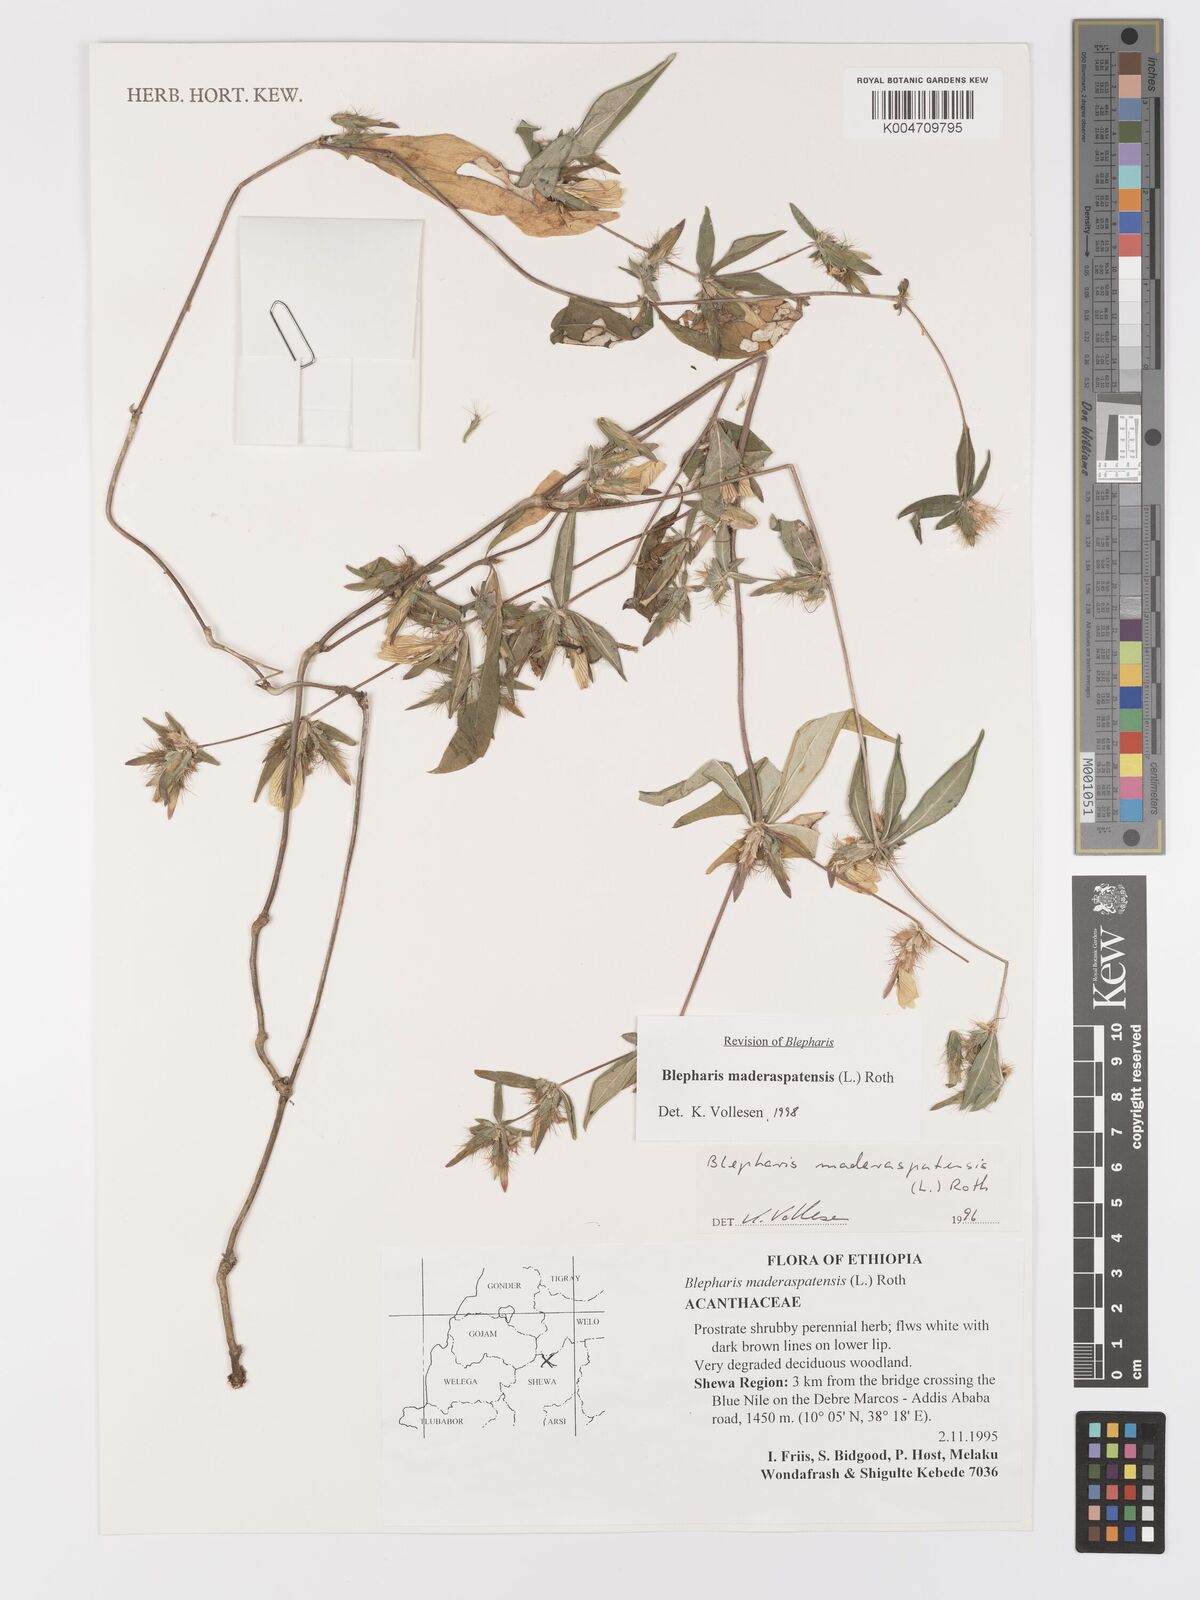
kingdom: Plantae
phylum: Tracheophyta
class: Magnoliopsida
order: Lamiales
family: Acanthaceae
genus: Blepharis
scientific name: Blepharis maderaspatensis
